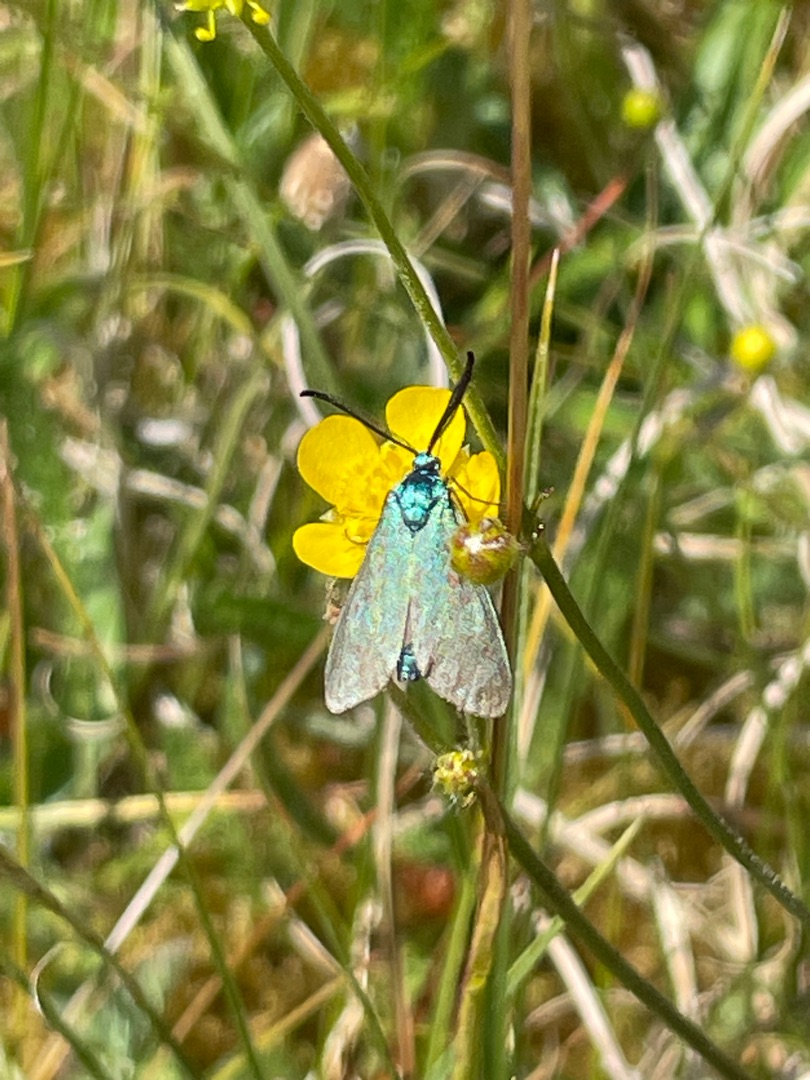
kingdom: Animalia
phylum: Arthropoda
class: Insecta
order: Lepidoptera
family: Zygaenidae
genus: Adscita
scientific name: Adscita statices
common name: Metalvinge
